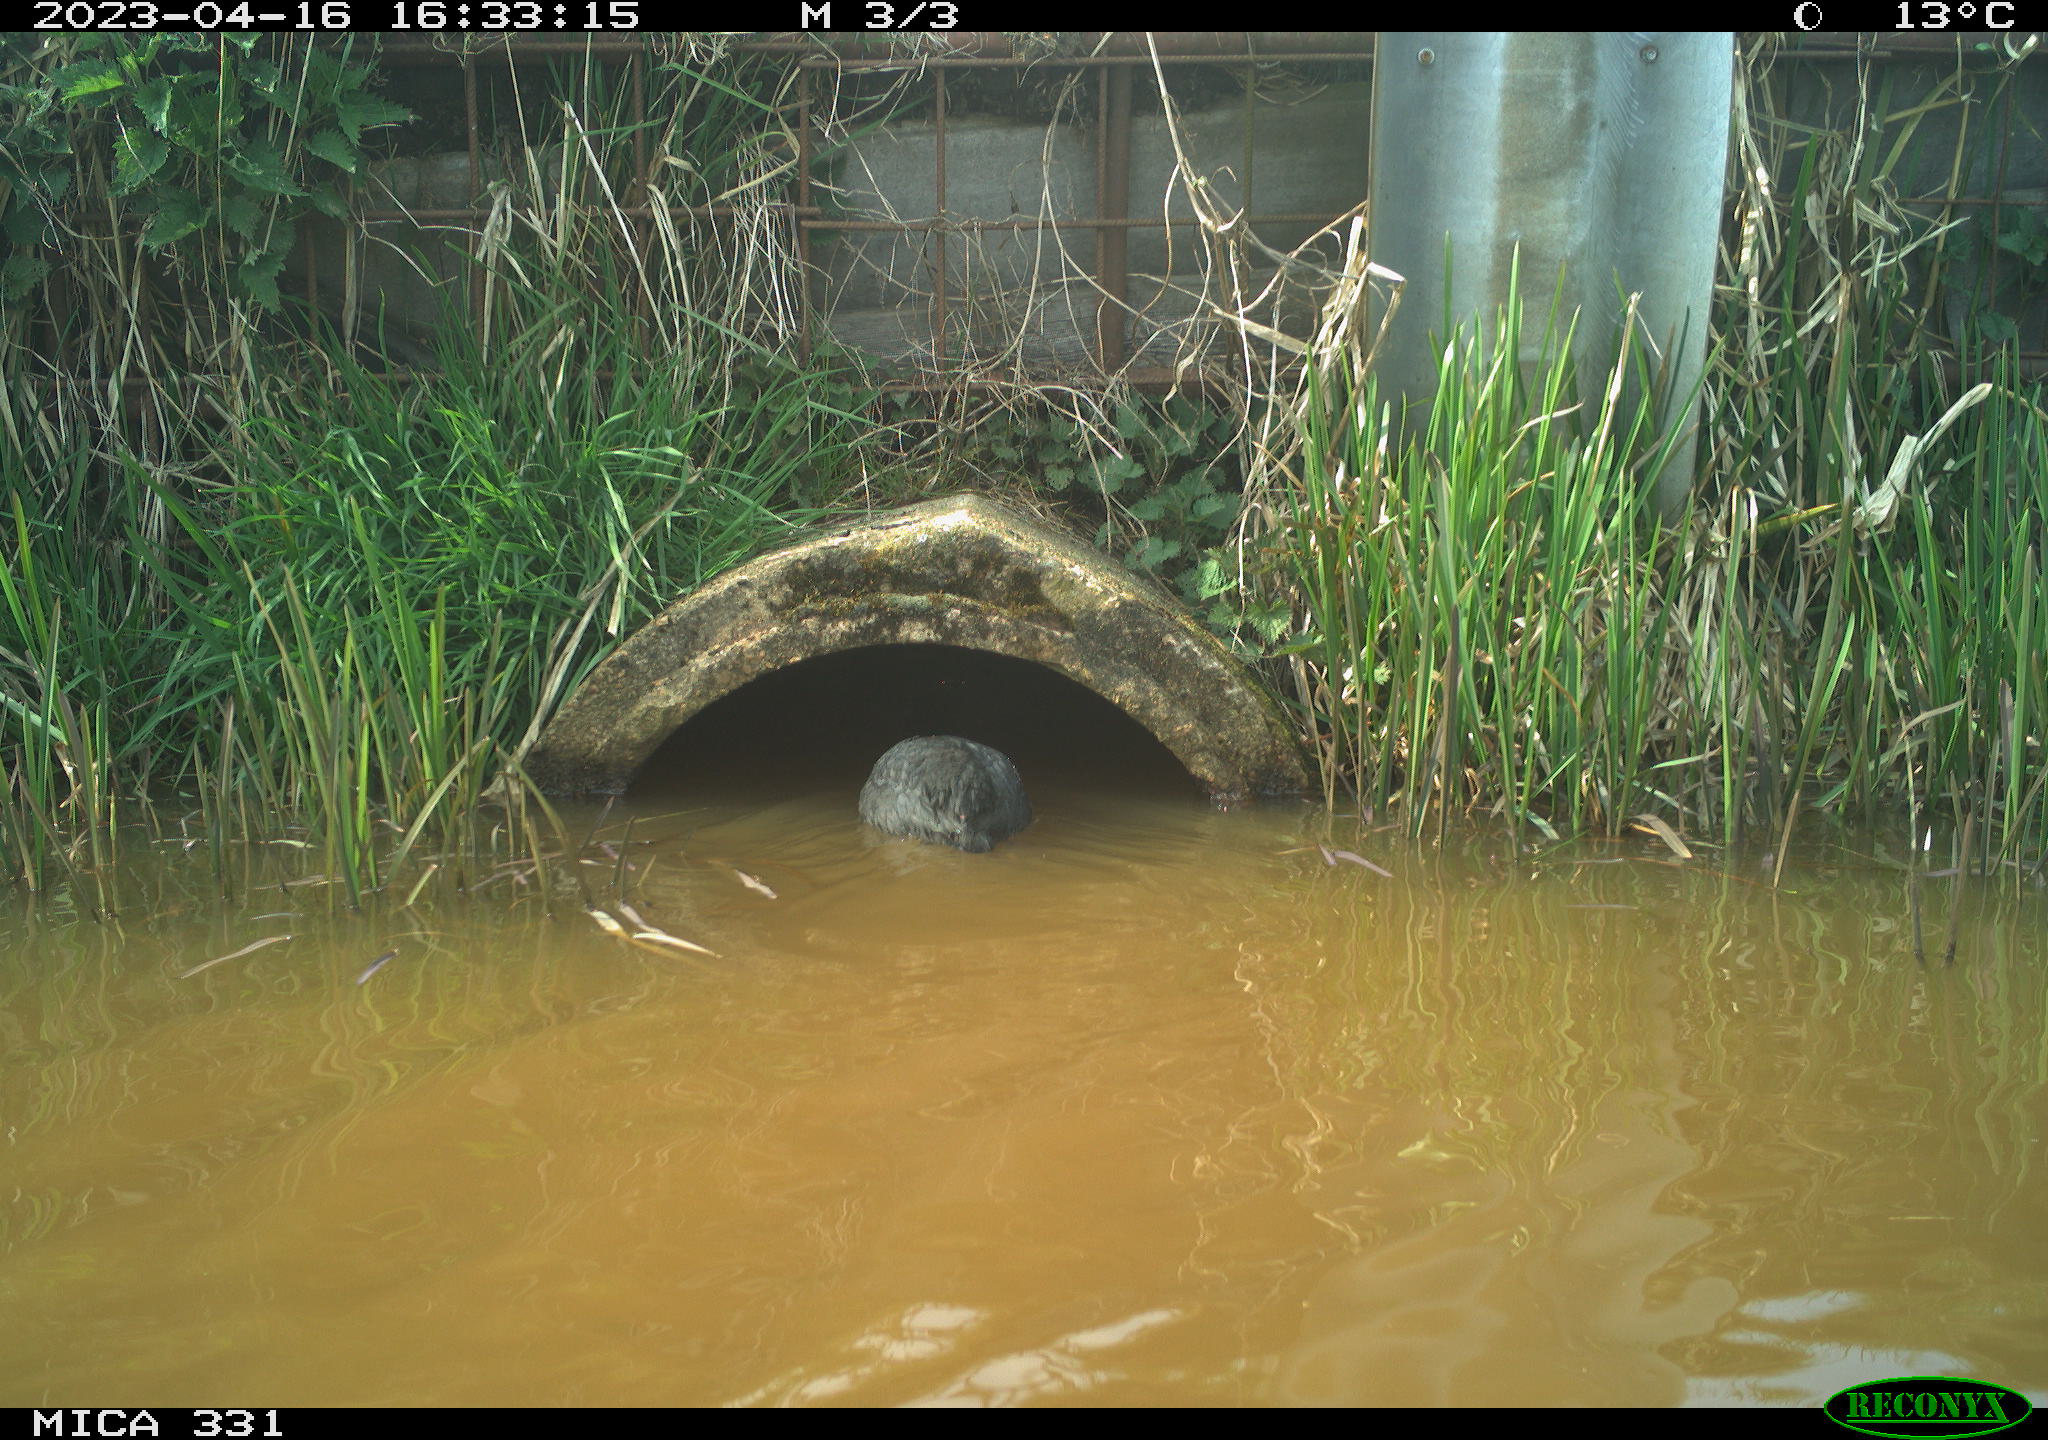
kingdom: Animalia
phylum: Chordata
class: Aves
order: Gruiformes
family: Rallidae
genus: Gallinula
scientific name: Gallinula chloropus
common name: Common moorhen
